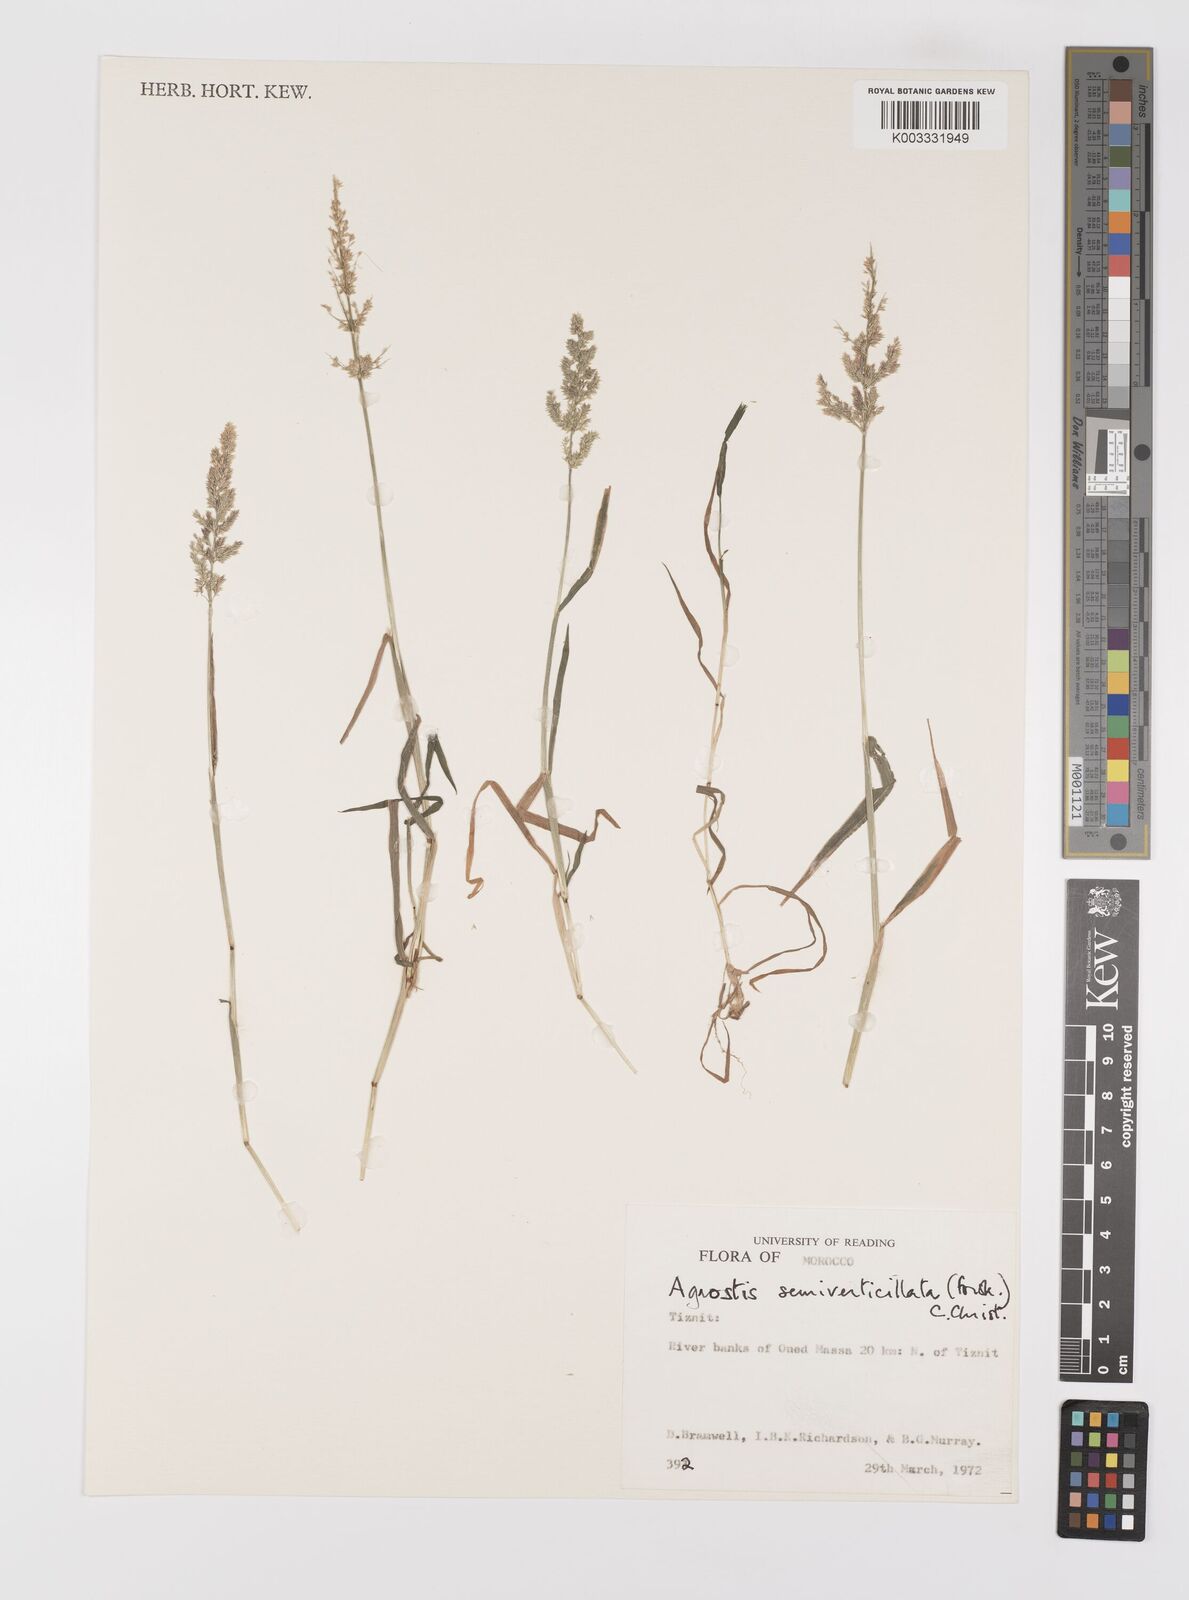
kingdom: Plantae
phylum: Tracheophyta
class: Liliopsida
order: Poales
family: Poaceae
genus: Polypogon
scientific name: Polypogon viridis
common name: Water bent
